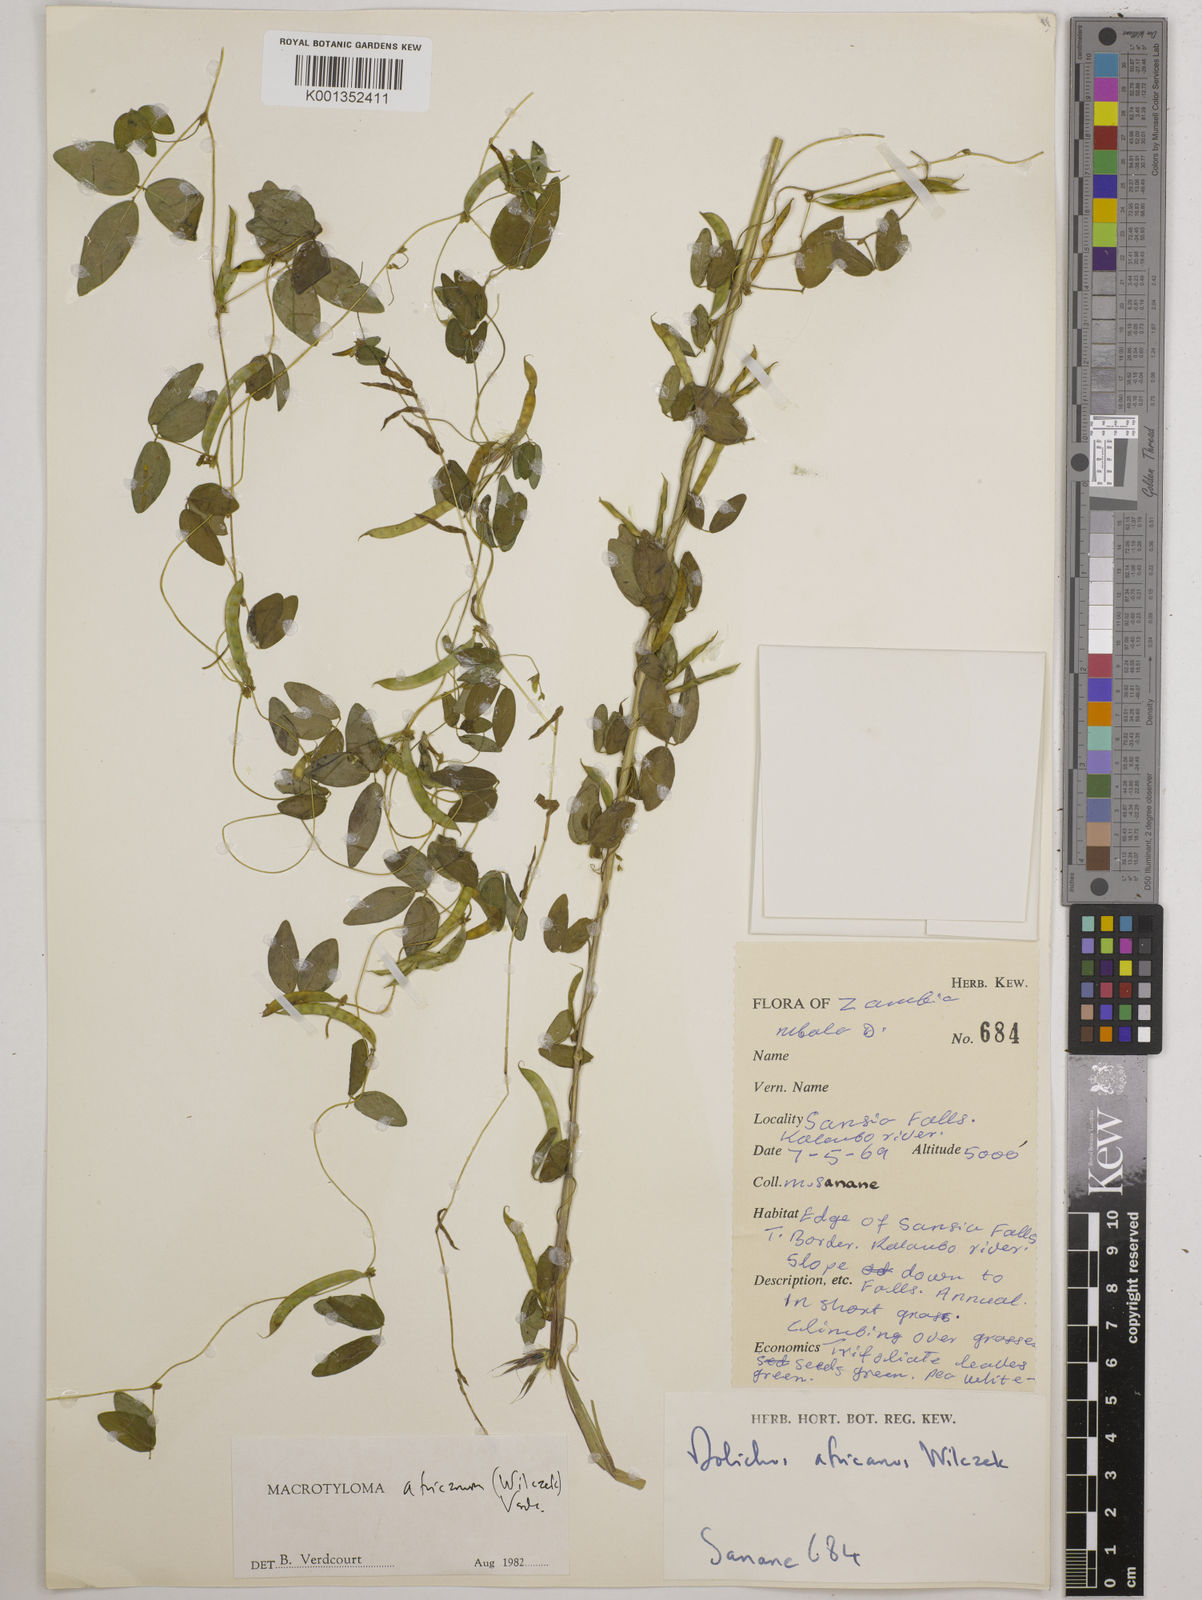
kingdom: Plantae
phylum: Tracheophyta
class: Magnoliopsida
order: Fabales
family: Fabaceae
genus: Macrotyloma
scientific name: Macrotyloma africanum
